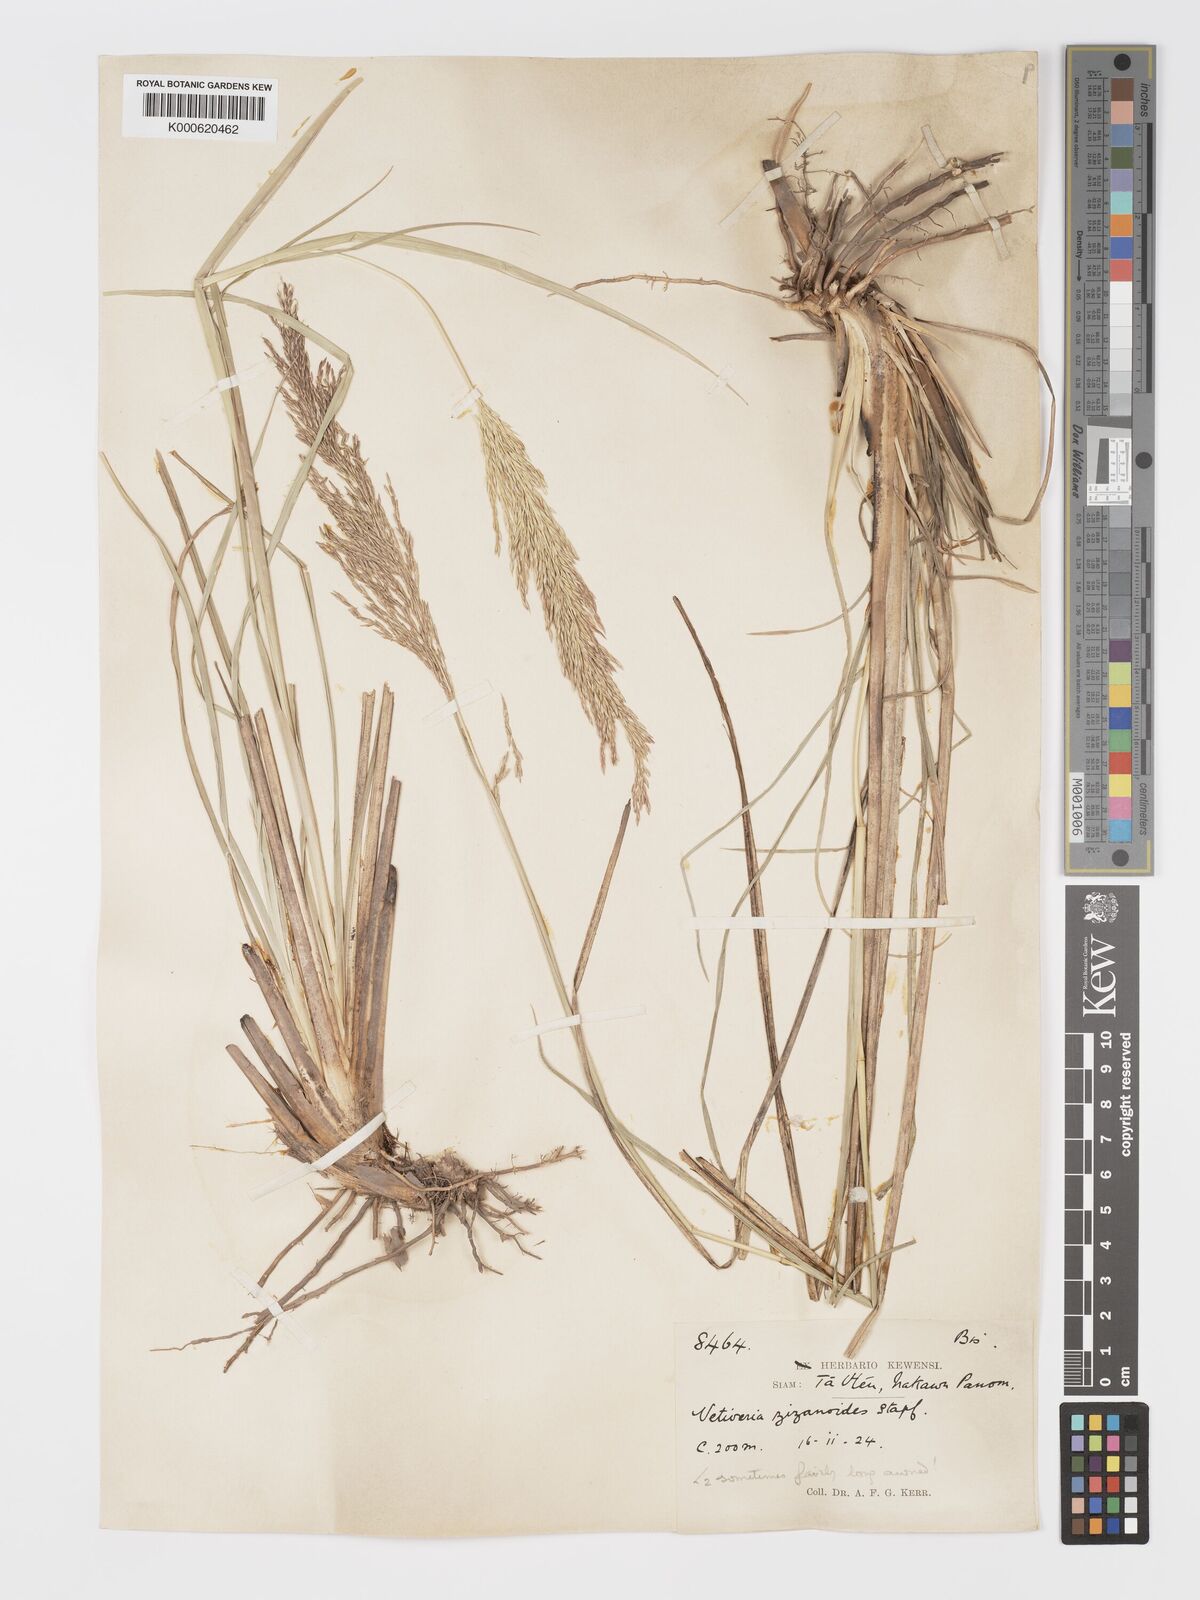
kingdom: Plantae
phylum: Tracheophyta
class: Liliopsida
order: Poales
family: Poaceae
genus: Chrysopogon
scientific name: Chrysopogon zizanioides
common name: False beardgrass
